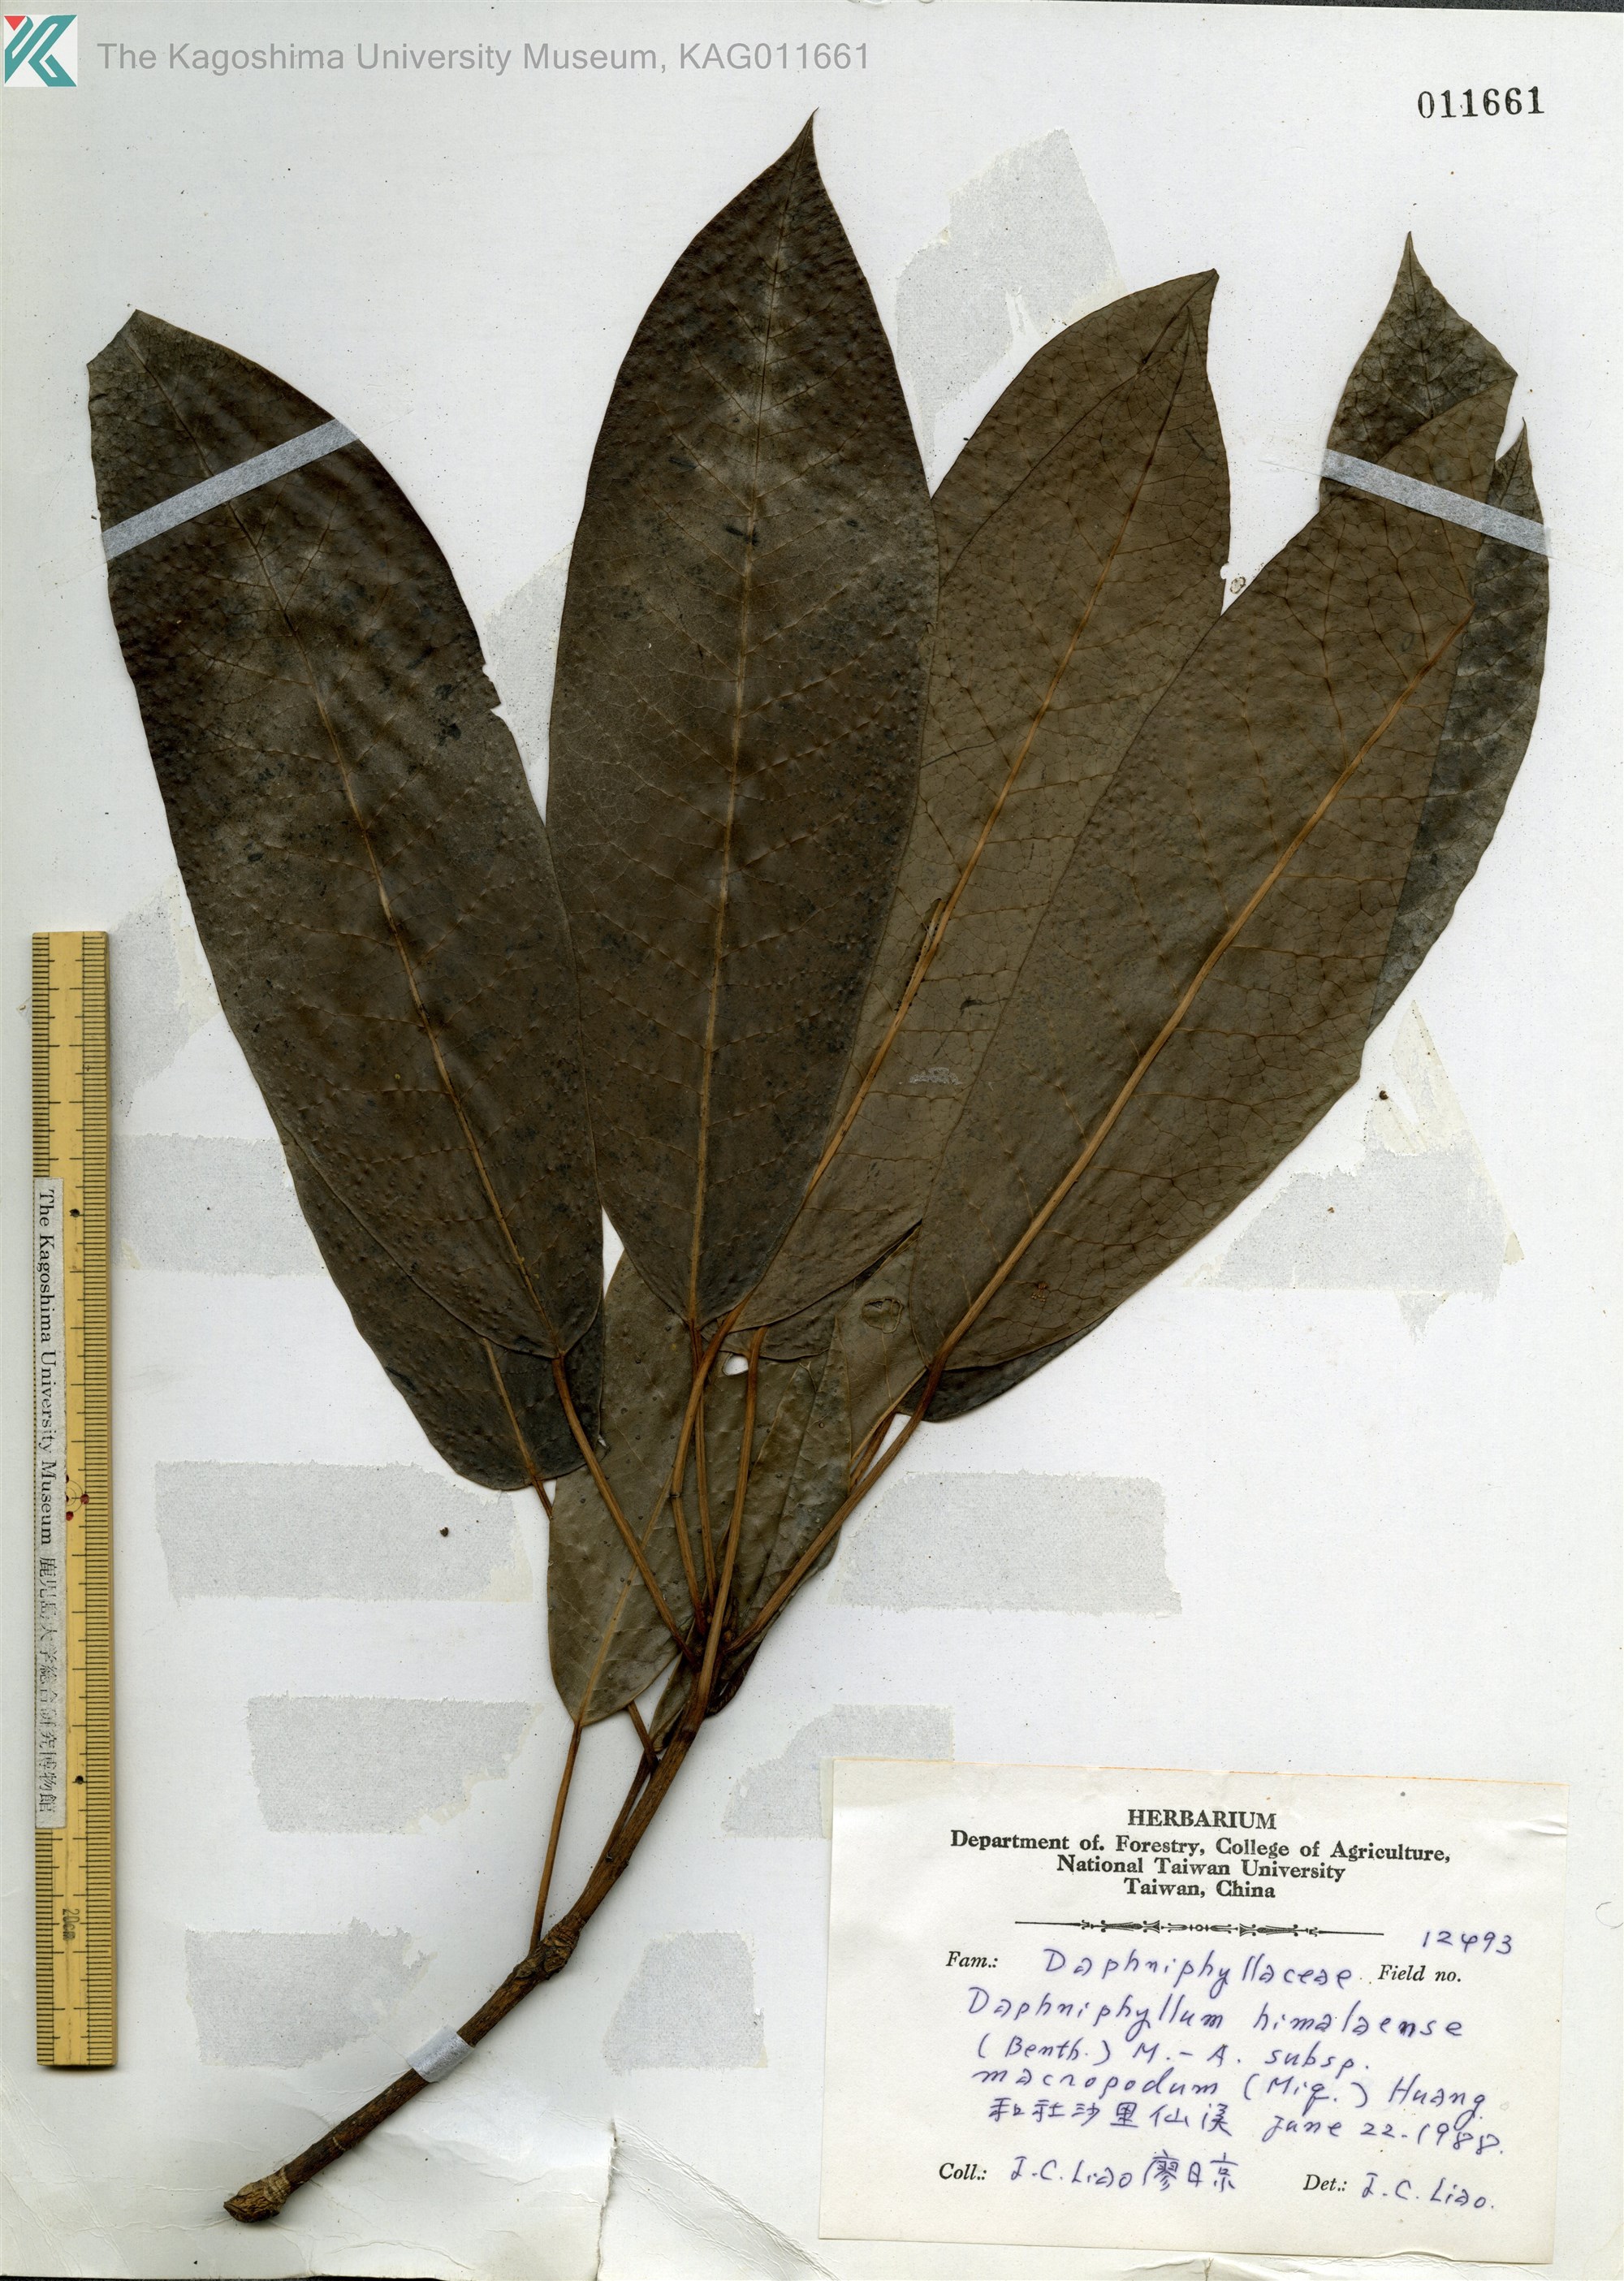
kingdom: Plantae
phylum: Tracheophyta
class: Magnoliopsida
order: Saxifragales
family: Daphniphyllaceae
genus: Daphniphyllum
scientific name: Daphniphyllum himalayense
